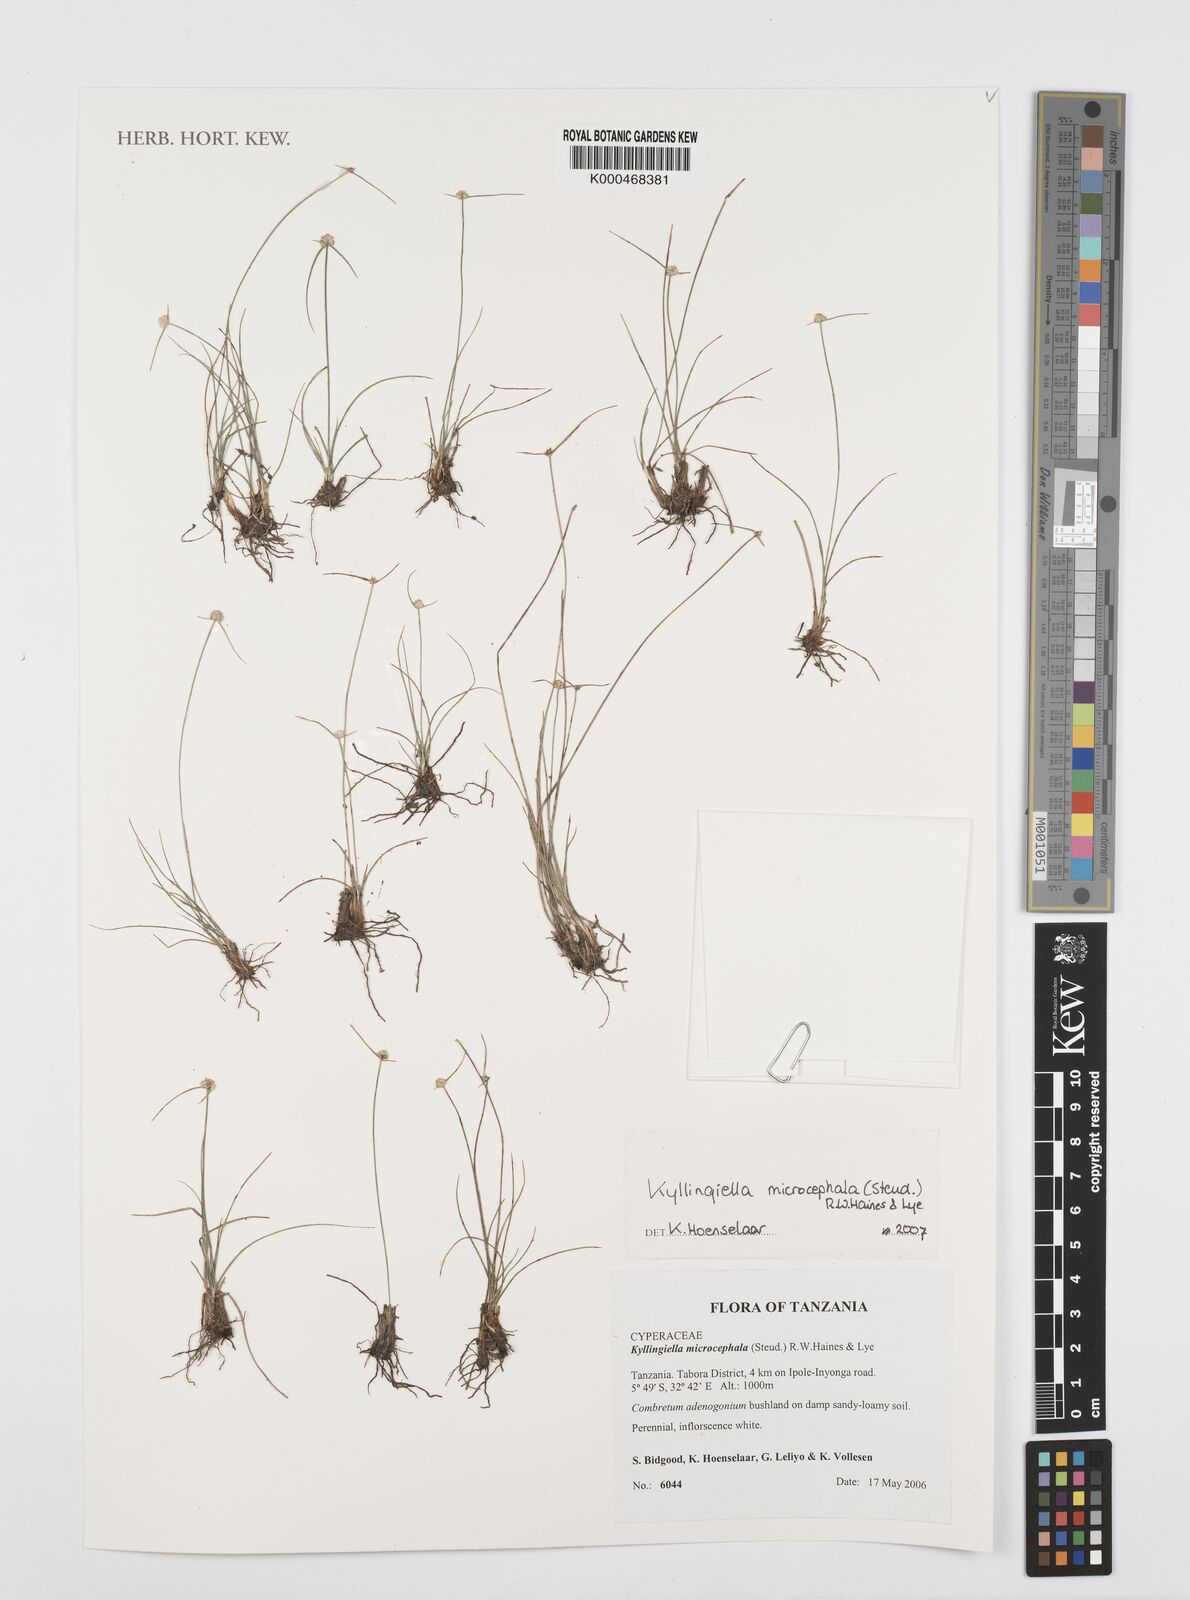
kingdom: Plantae
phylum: Tracheophyta
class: Liliopsida
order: Poales
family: Cyperaceae
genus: Cyperus
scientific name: Cyperus kyllingiella
